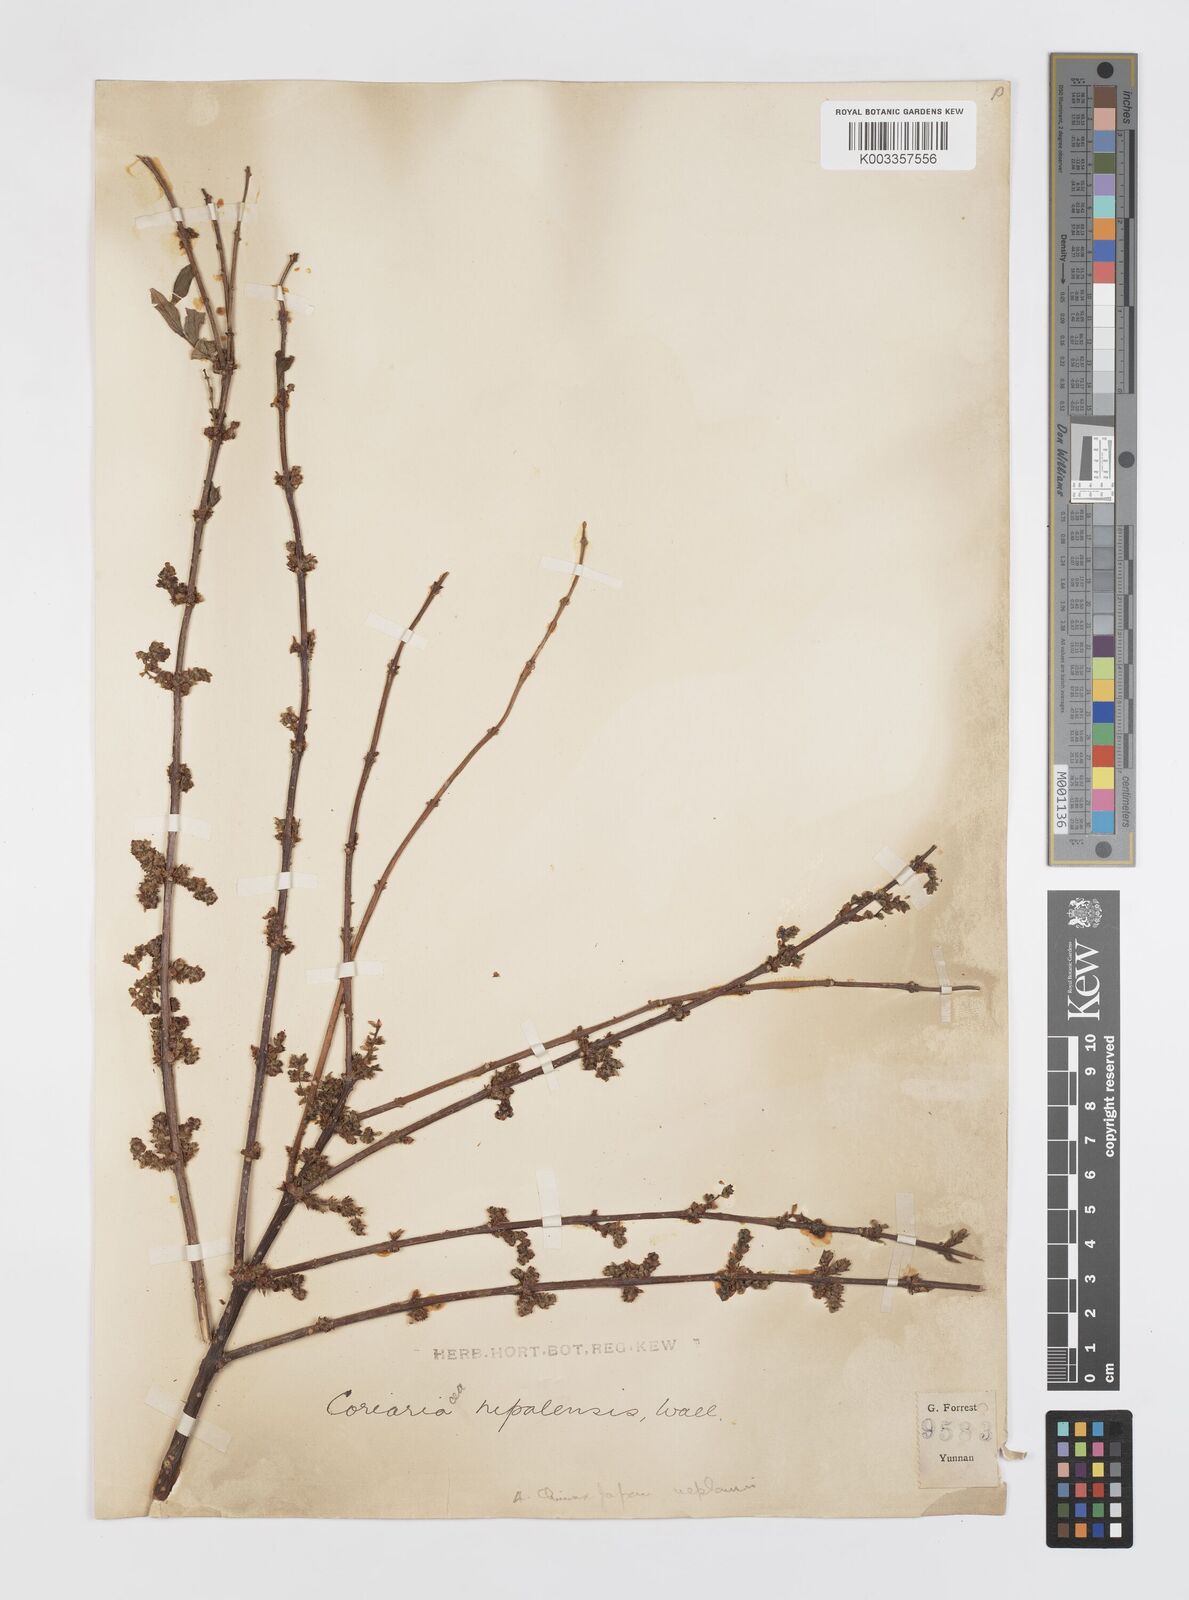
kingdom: Plantae
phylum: Tracheophyta
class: Magnoliopsida
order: Cucurbitales
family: Coriariaceae
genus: Coriaria
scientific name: Coriaria napalensis
